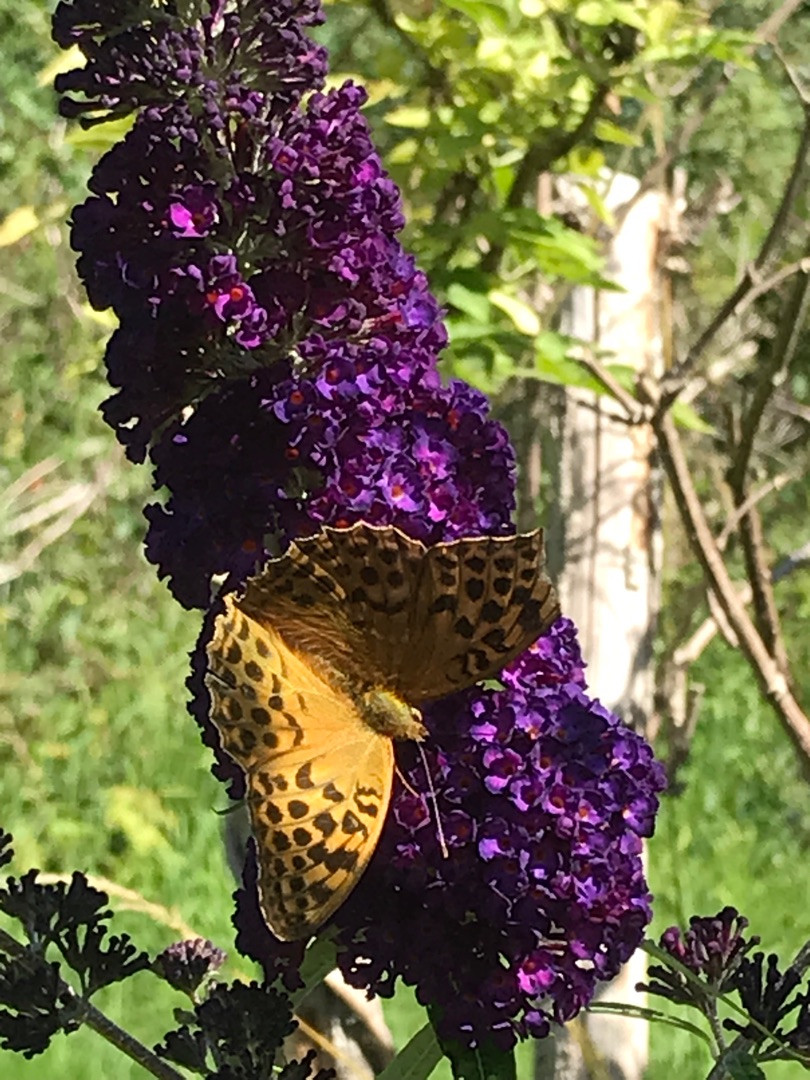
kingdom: Animalia
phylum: Arthropoda
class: Insecta
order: Lepidoptera
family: Nymphalidae
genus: Argynnis
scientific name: Argynnis paphia
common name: Kejserkåbe
